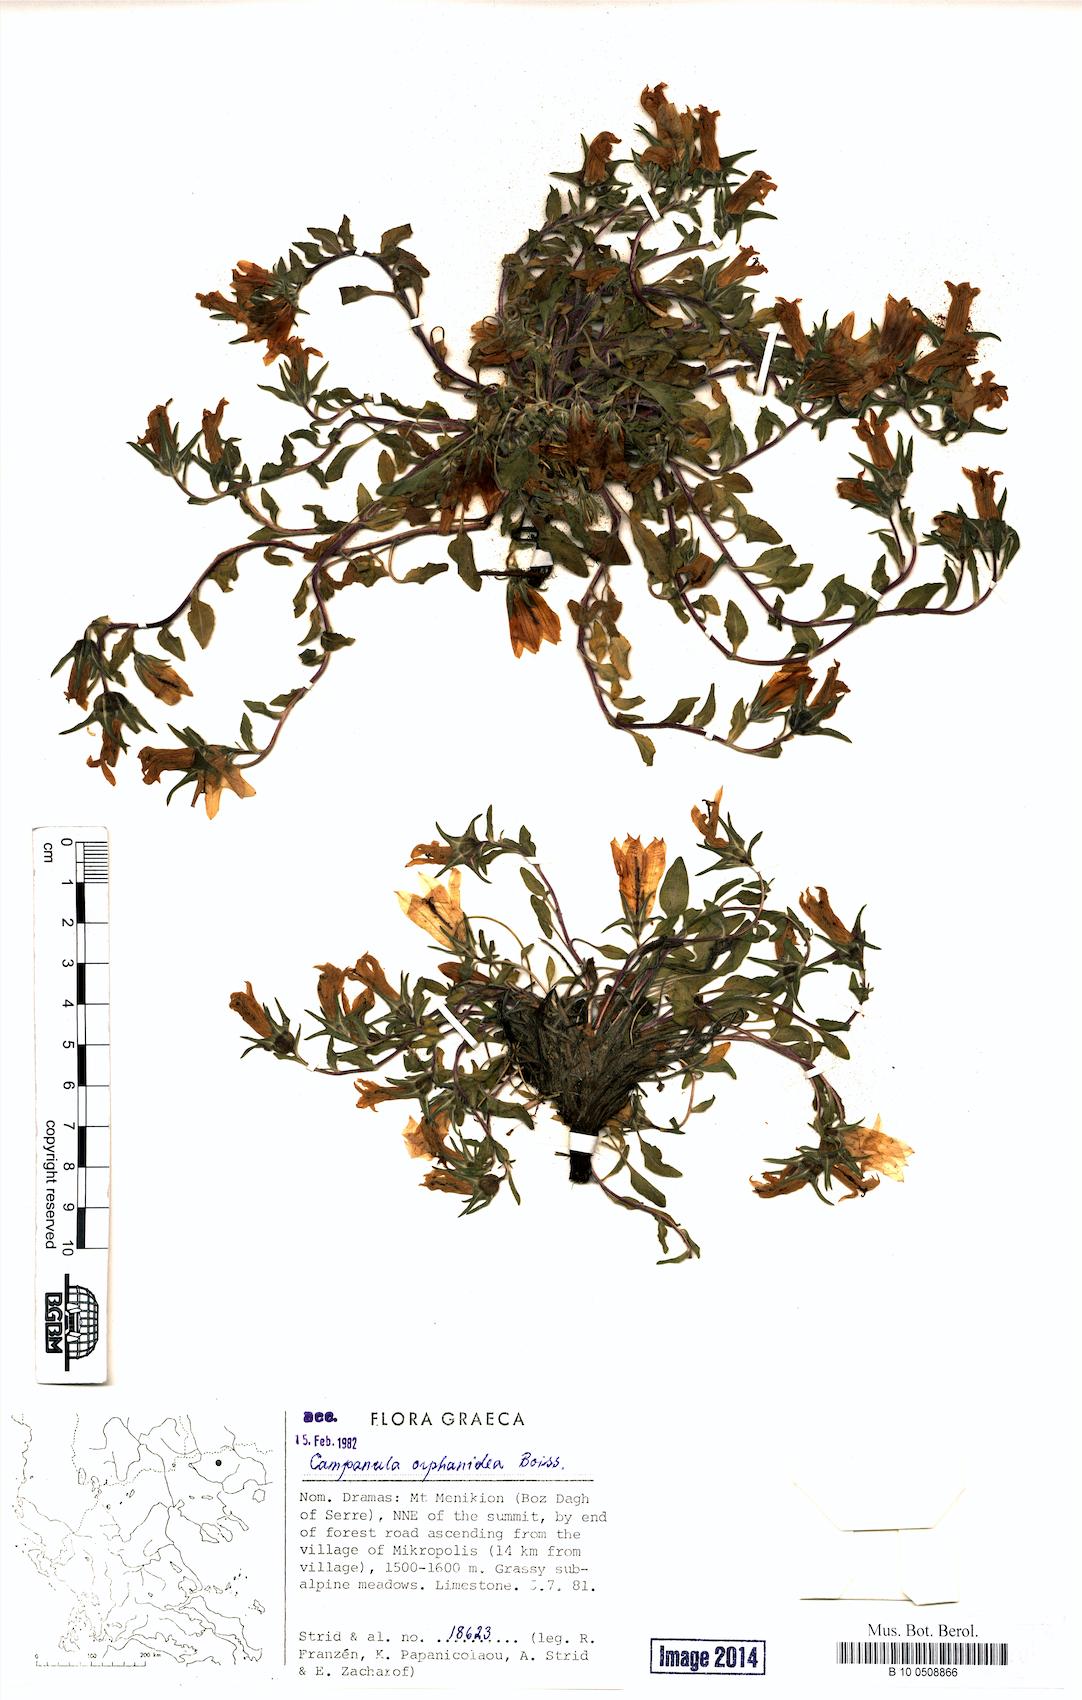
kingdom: Plantae
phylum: Tracheophyta
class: Magnoliopsida
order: Asterales
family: Campanulaceae
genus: Campanula
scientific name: Campanula orphanidea
